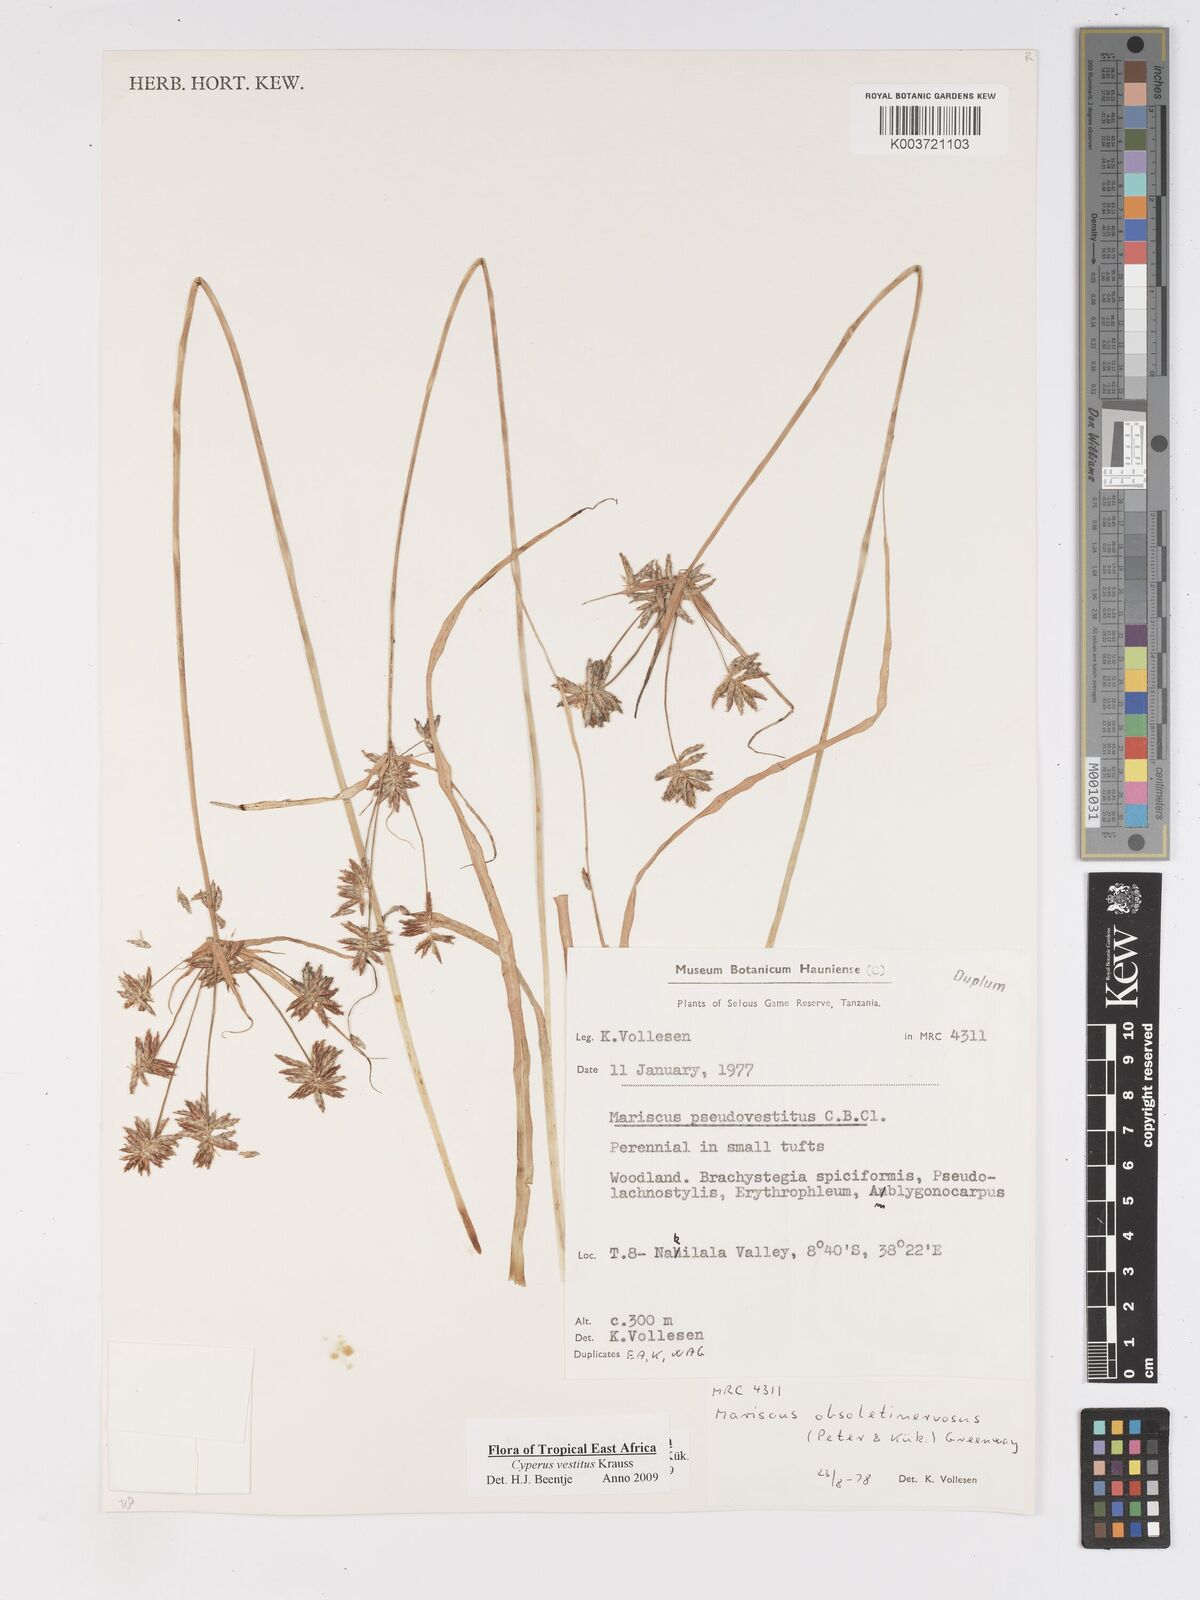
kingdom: Plantae
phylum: Tracheophyta
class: Liliopsida
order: Poales
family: Cyperaceae
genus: Cyperus
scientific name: Cyperus vestitus
